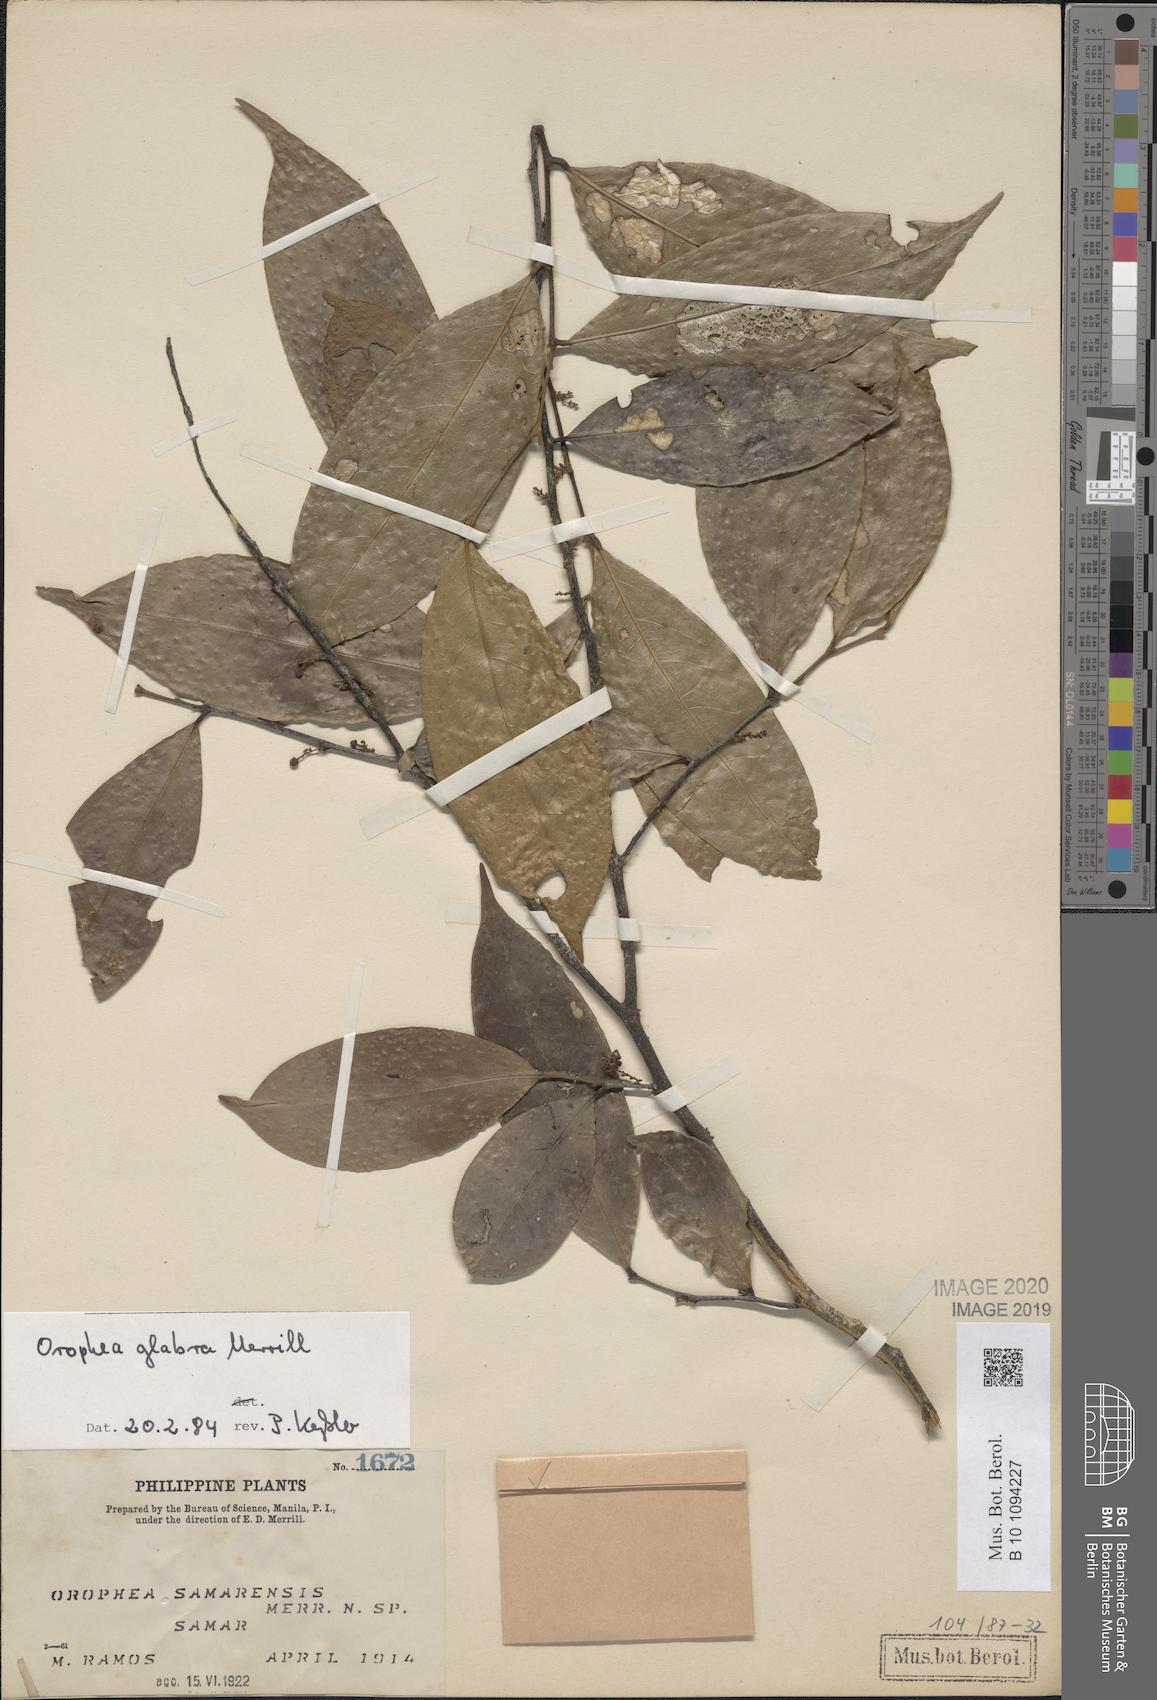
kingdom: Plantae
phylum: Tracheophyta
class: Magnoliopsida
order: Magnoliales
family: Annonaceae
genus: Orophea
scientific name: Orophea glabra
